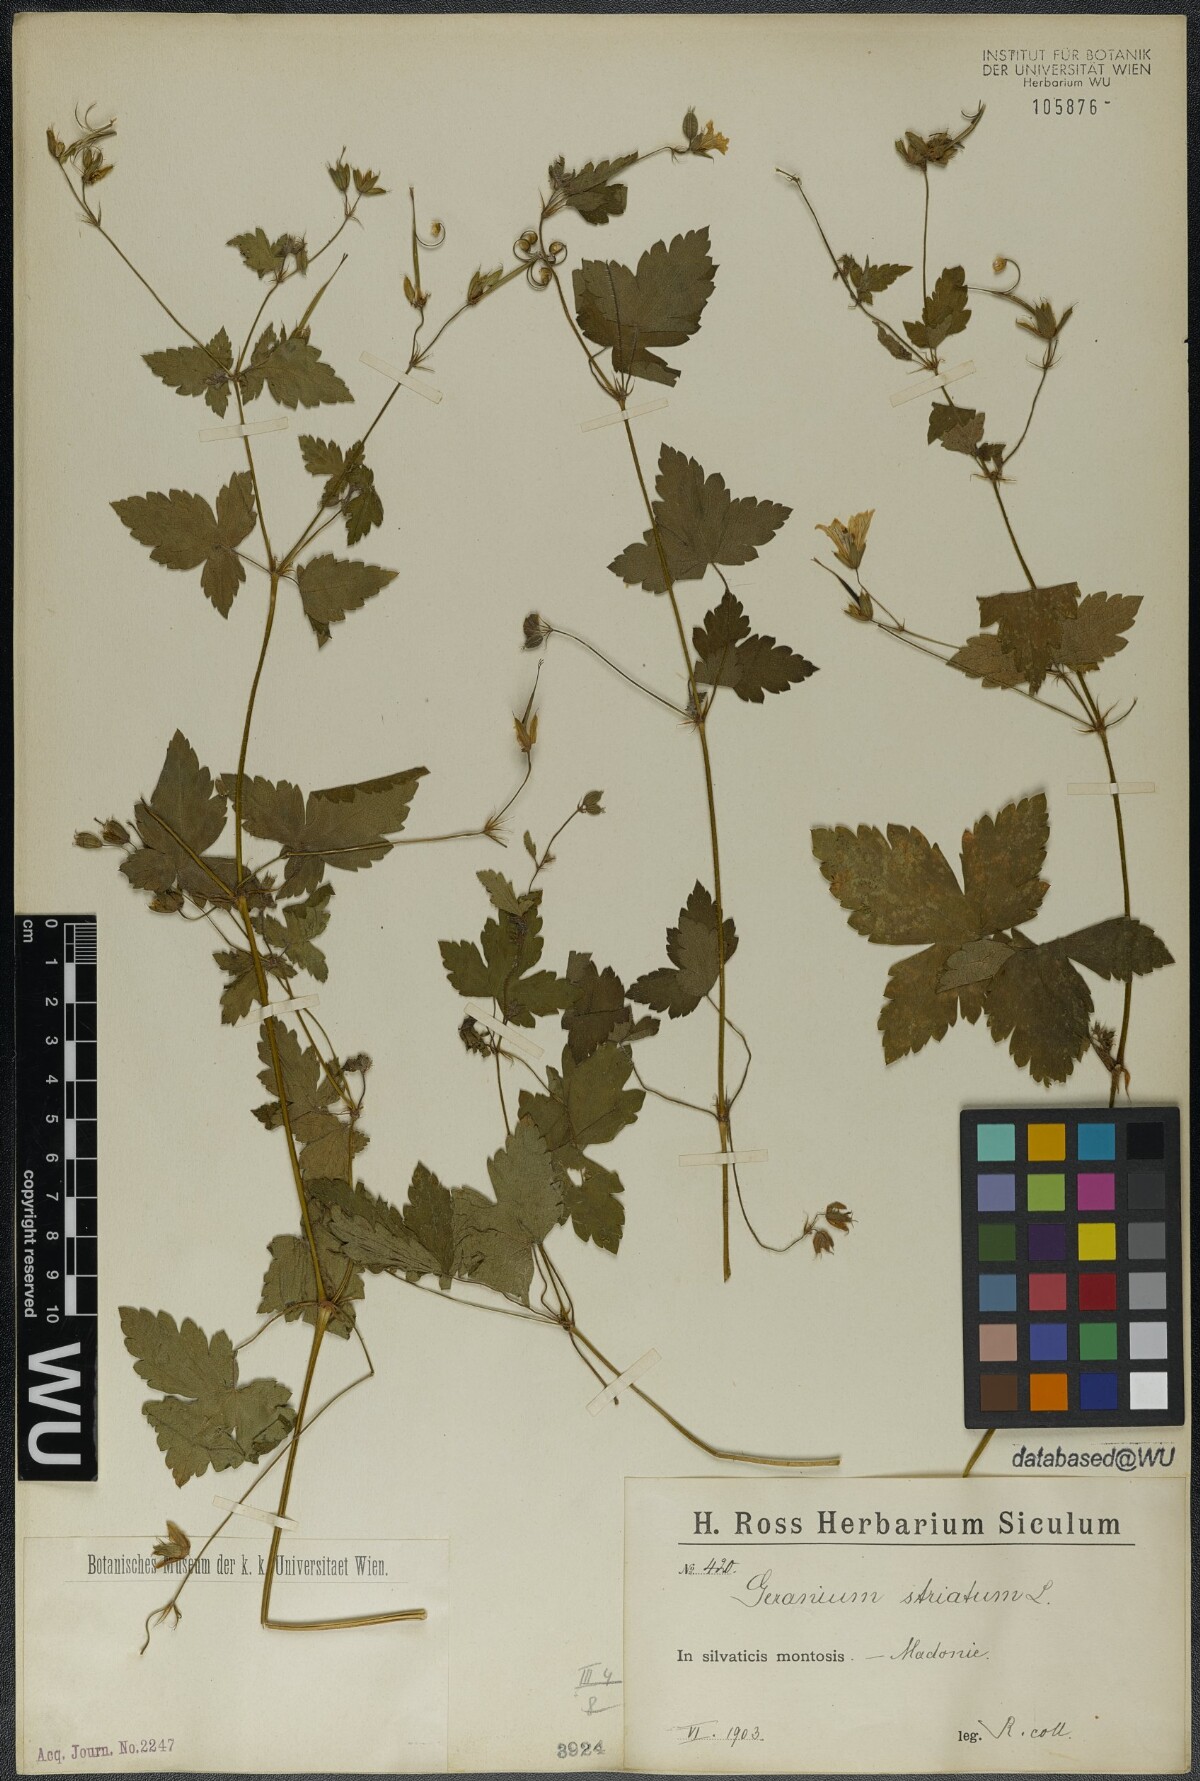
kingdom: Plantae
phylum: Tracheophyta
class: Magnoliopsida
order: Geraniales
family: Geraniaceae
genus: Geranium
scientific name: Geranium versicolor
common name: Pencilled crane's-bill
